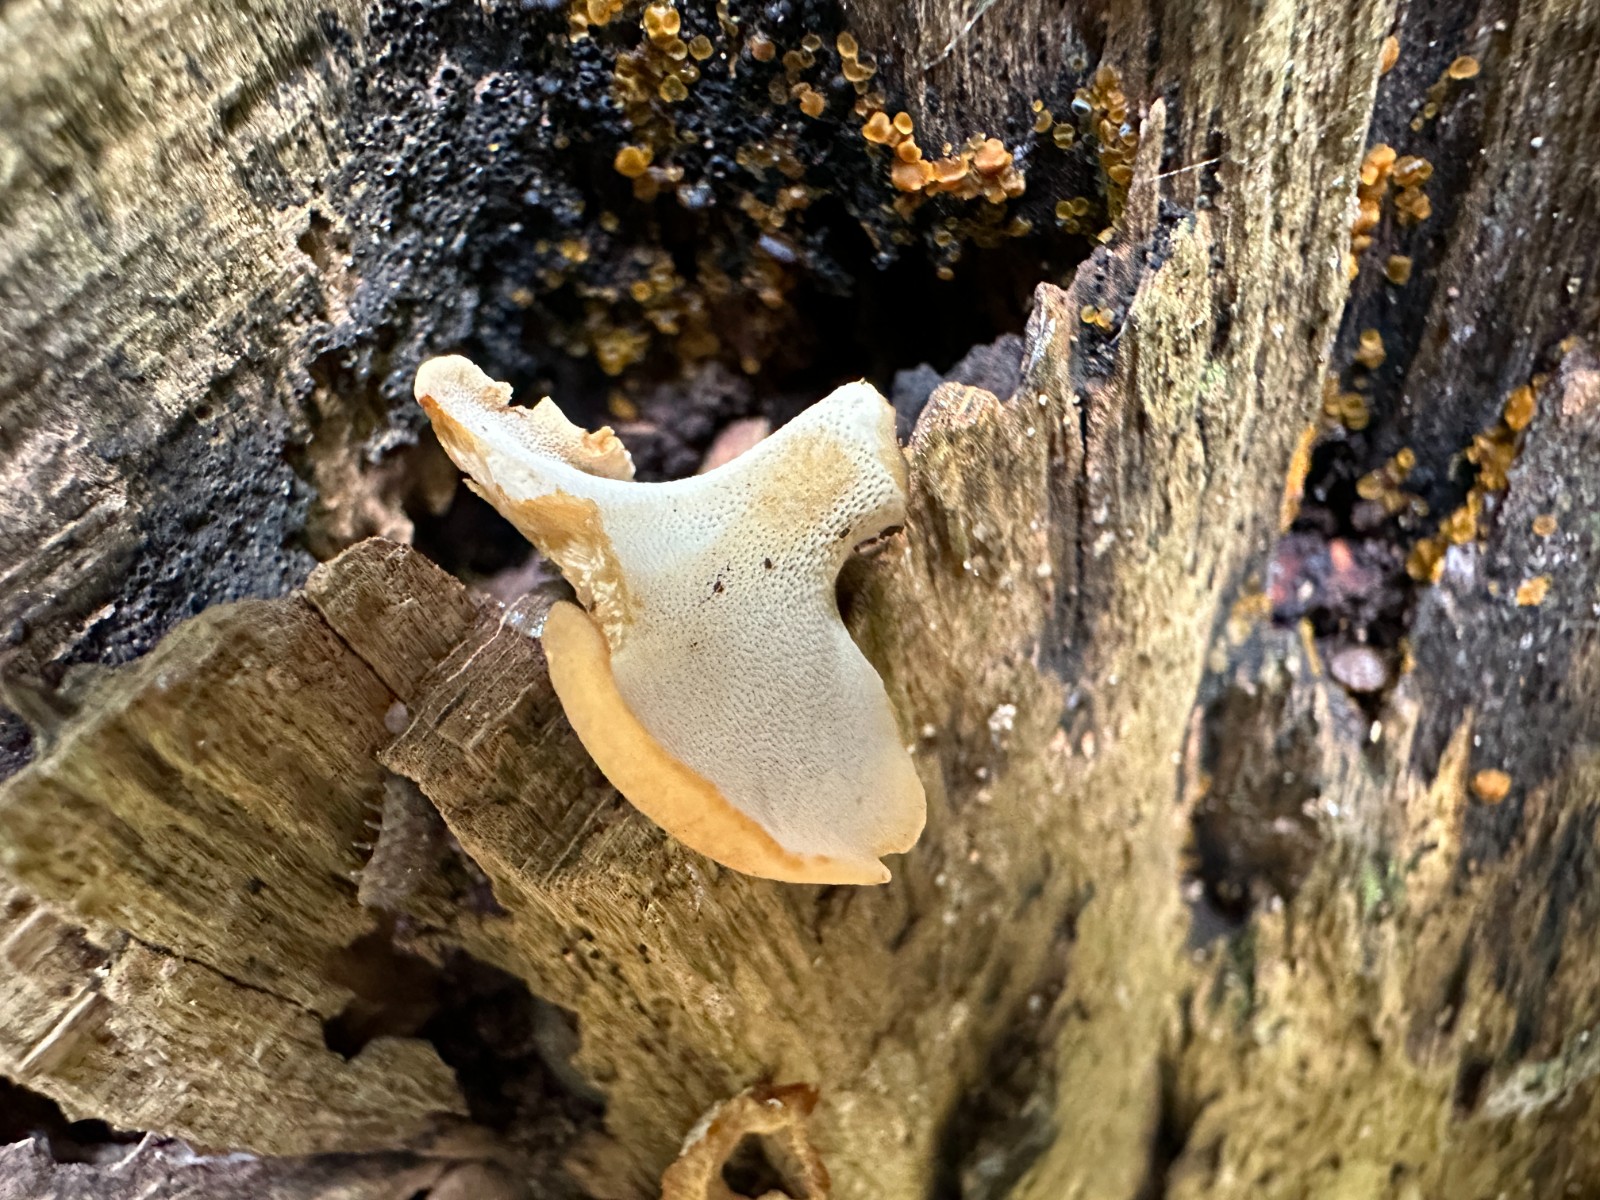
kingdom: Fungi
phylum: Basidiomycota
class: Agaricomycetes
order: Polyporales
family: Polyporaceae
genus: Cerioporus
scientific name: Cerioporus varius
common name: foranderlig stilkporesvamp
